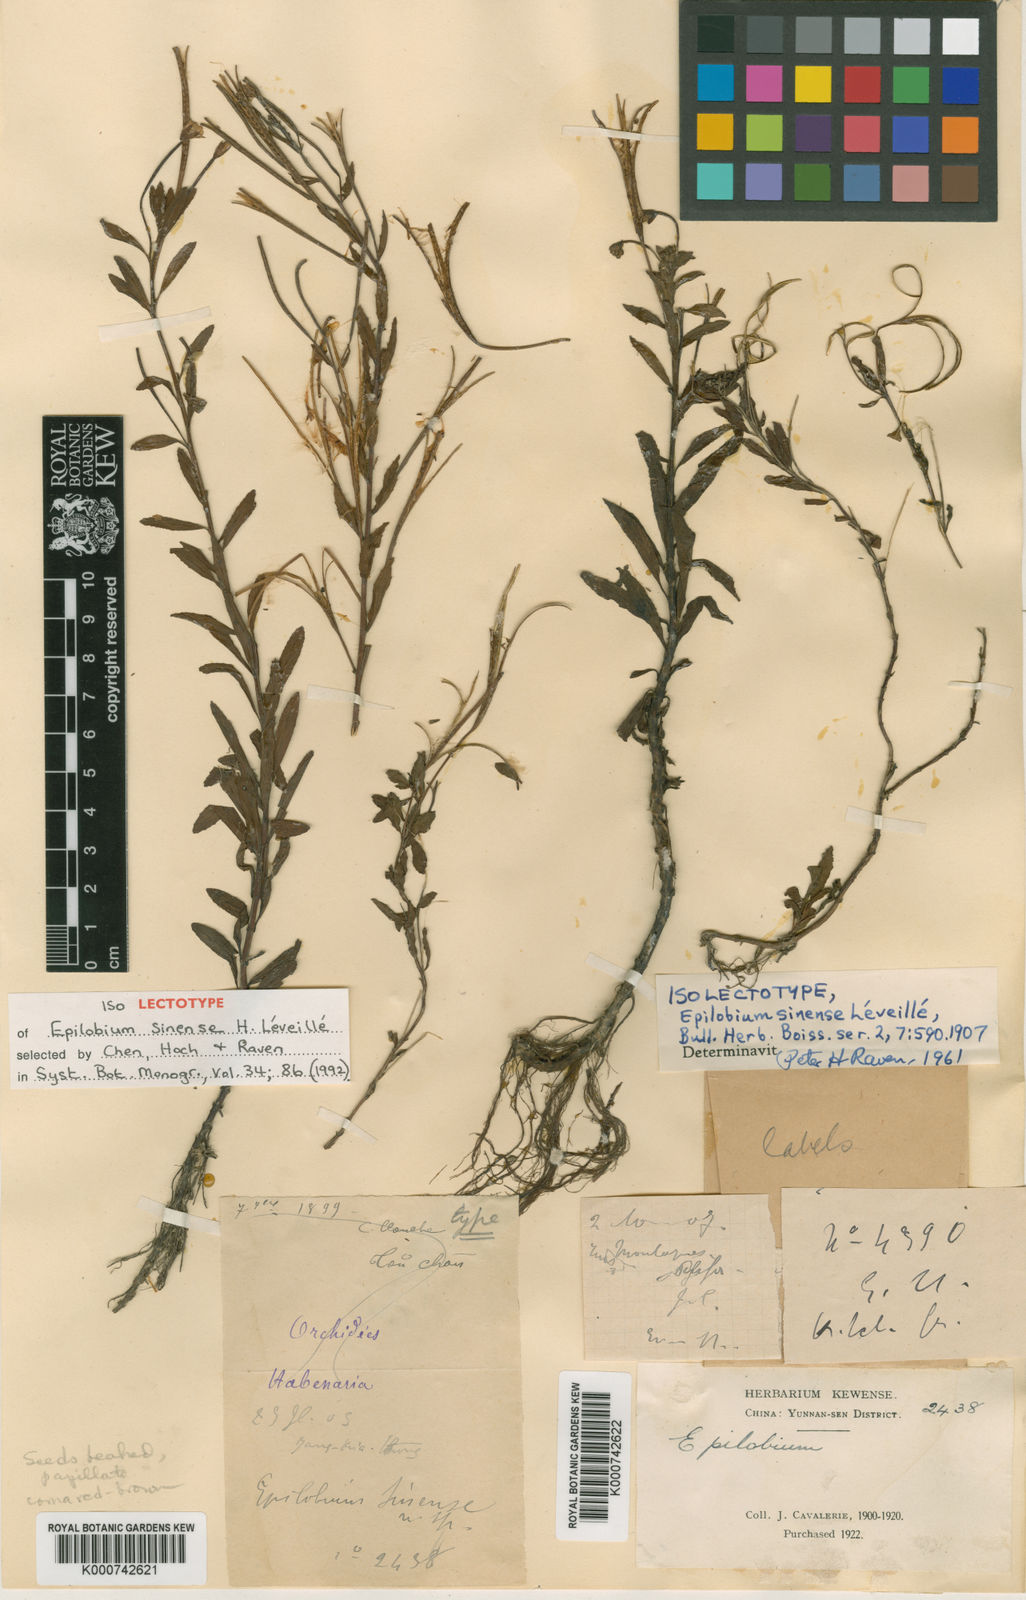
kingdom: Plantae
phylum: Tracheophyta
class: Magnoliopsida
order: Myrtales
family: Onagraceae
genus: Epilobium
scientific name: Epilobium
